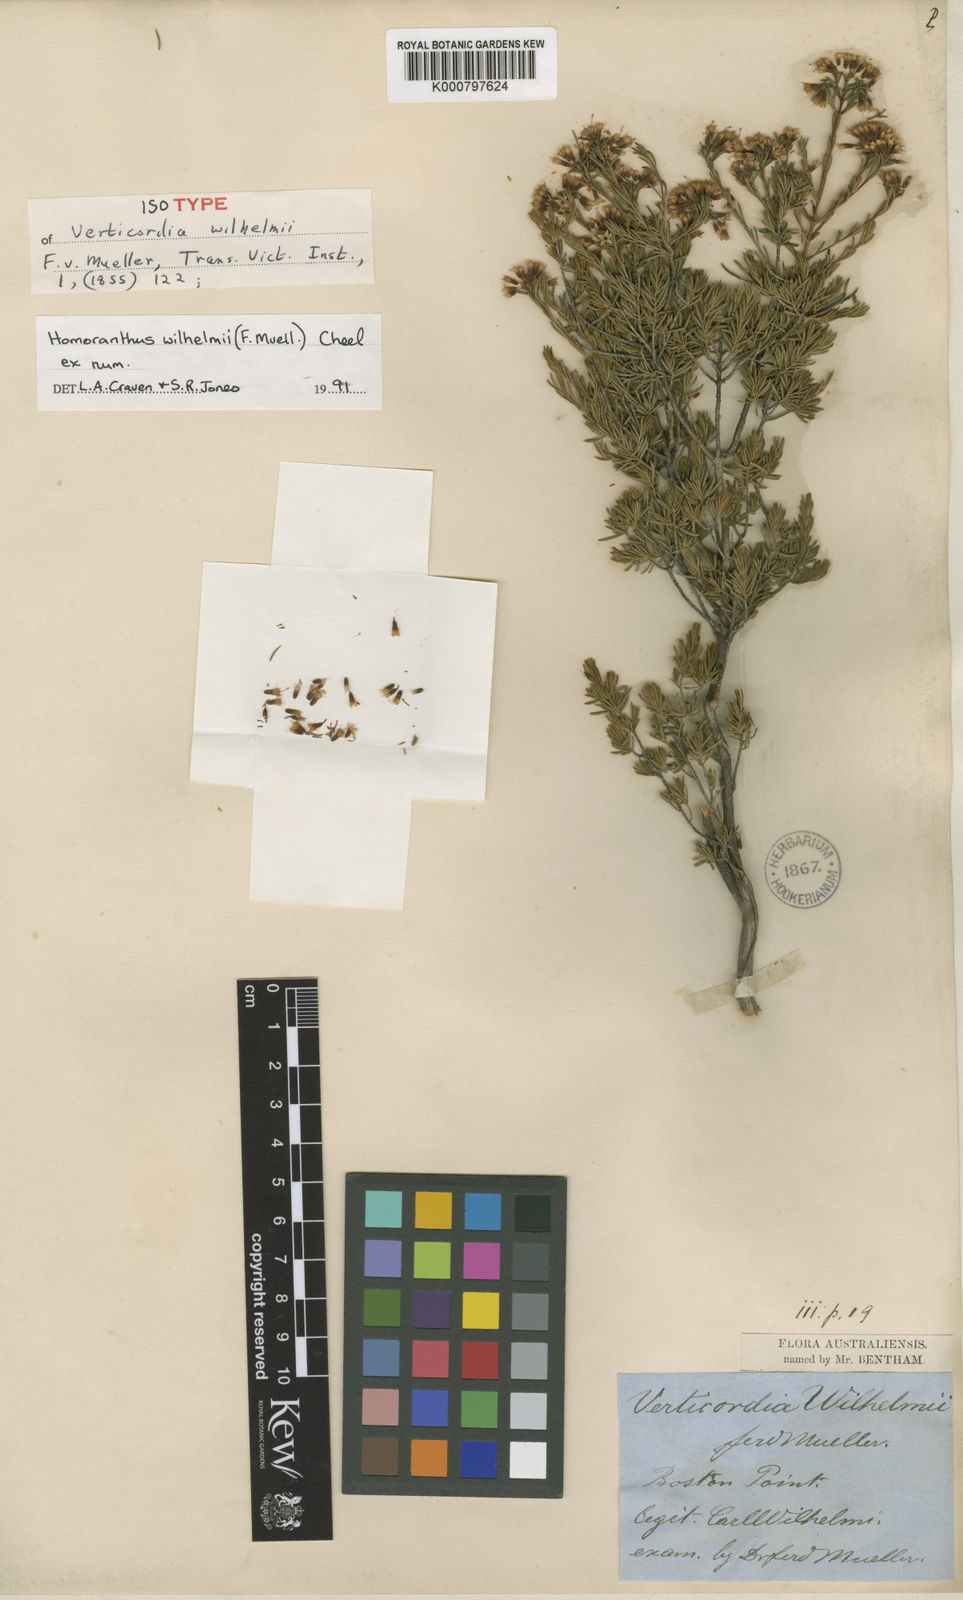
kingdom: Plantae
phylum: Tracheophyta
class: Magnoliopsida
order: Myrtales
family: Myrtaceae
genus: Homoranthus
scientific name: Homoranthus wilhelmii
